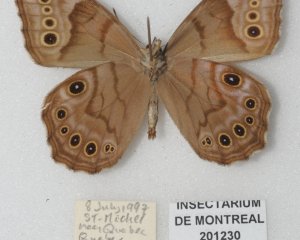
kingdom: Animalia
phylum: Arthropoda
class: Insecta
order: Lepidoptera
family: Nymphalidae
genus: Lethe
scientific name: Lethe anthedon
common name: Northern Pearly-Eye
